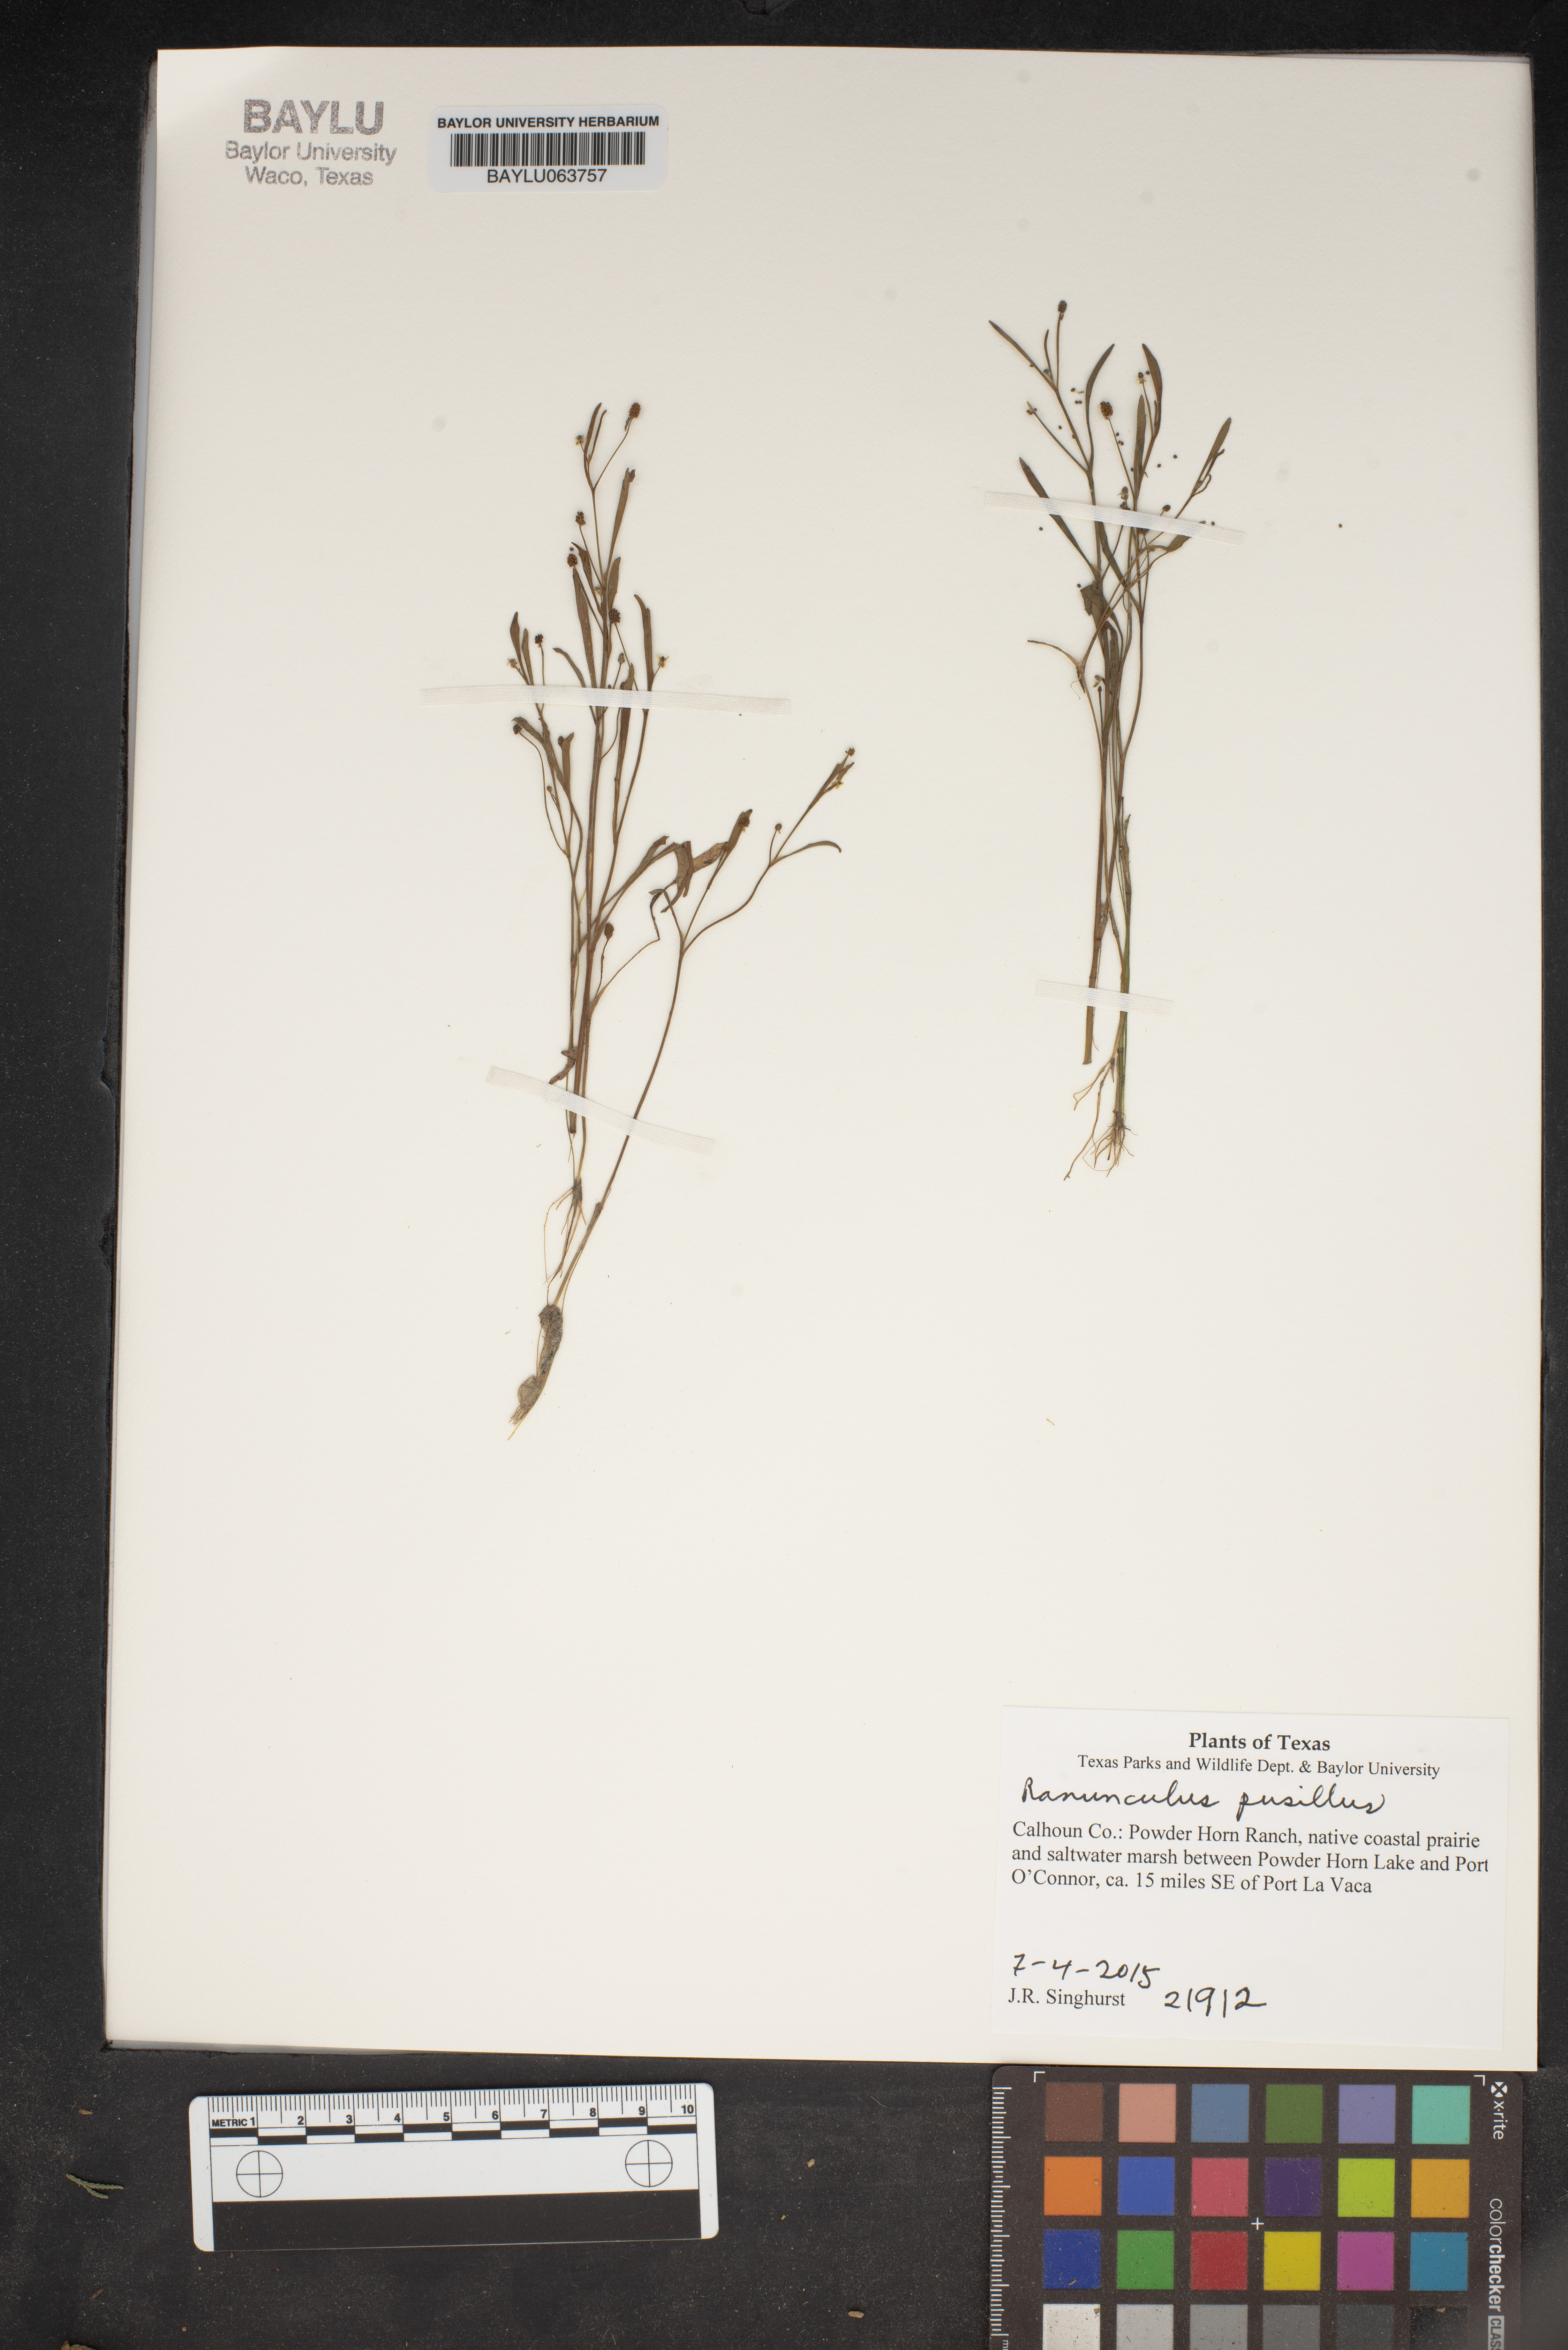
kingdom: Plantae
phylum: Tracheophyta
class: Magnoliopsida
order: Ranunculales
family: Ranunculaceae
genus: Ranunculus
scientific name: Ranunculus pusillus
